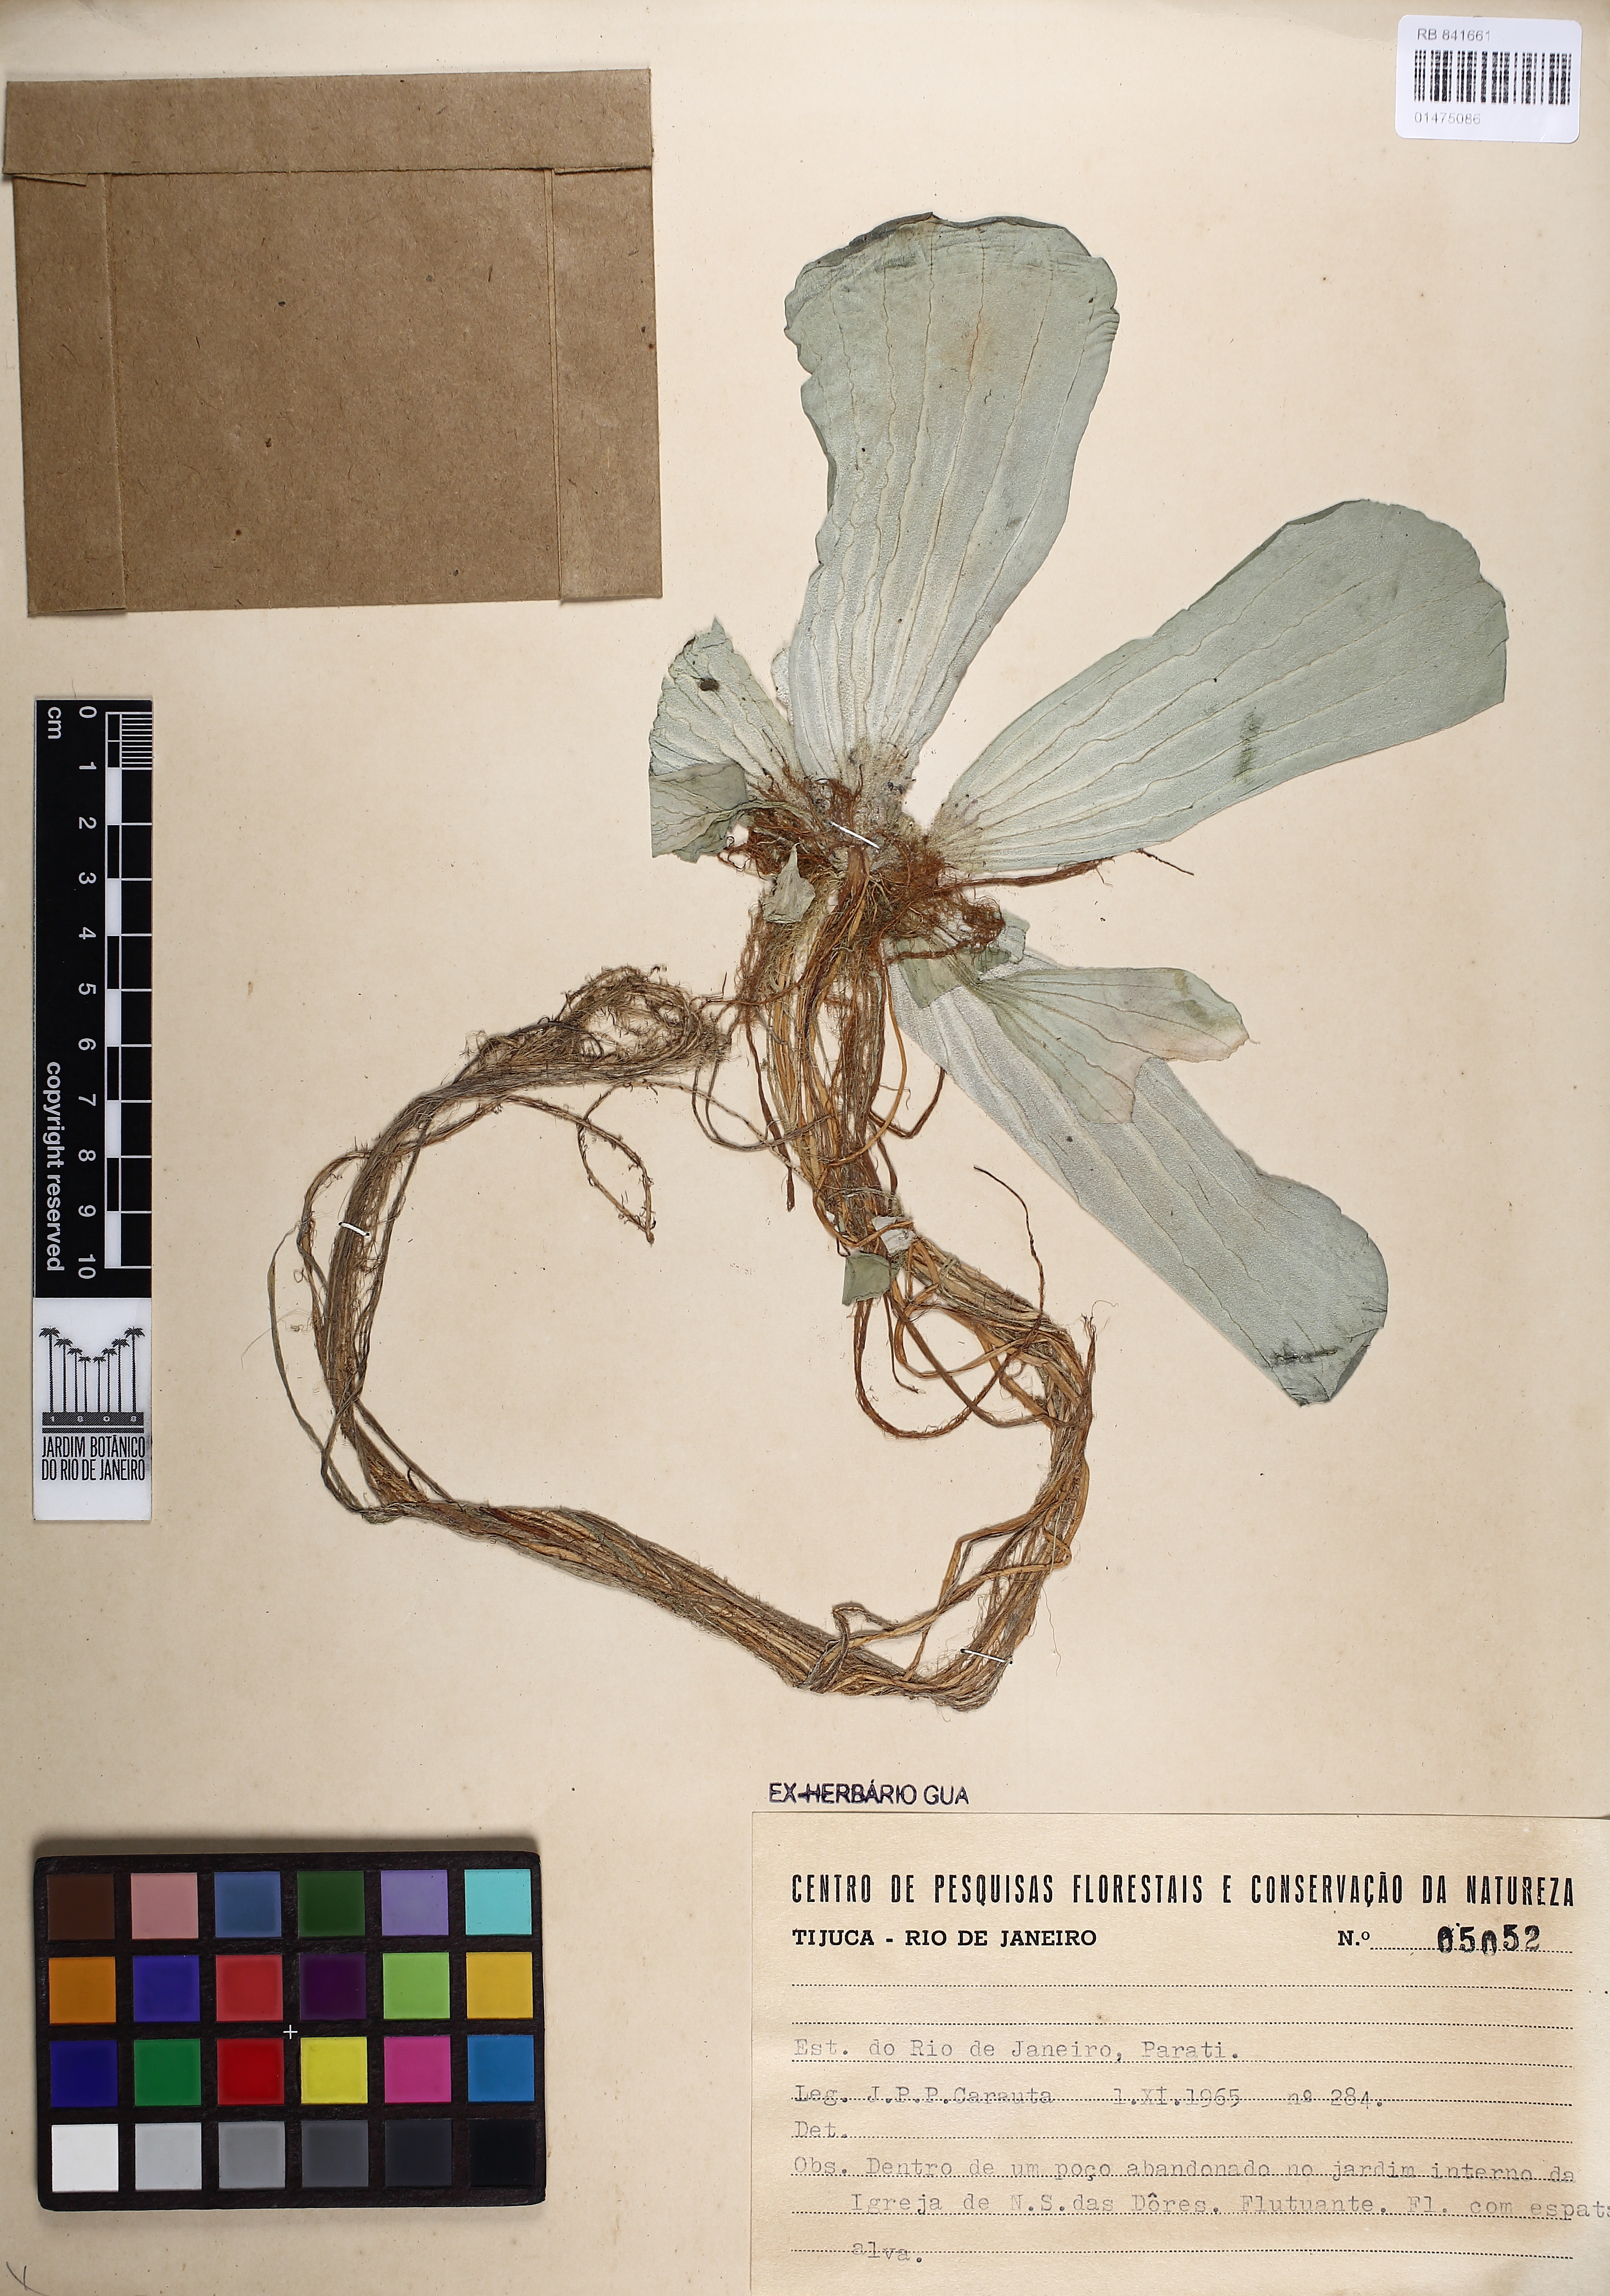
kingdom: Plantae
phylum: Tracheophyta
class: Liliopsida
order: Alismatales
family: Araceae
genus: Pistia
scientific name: Pistia stratiotes
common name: Water lettuce
